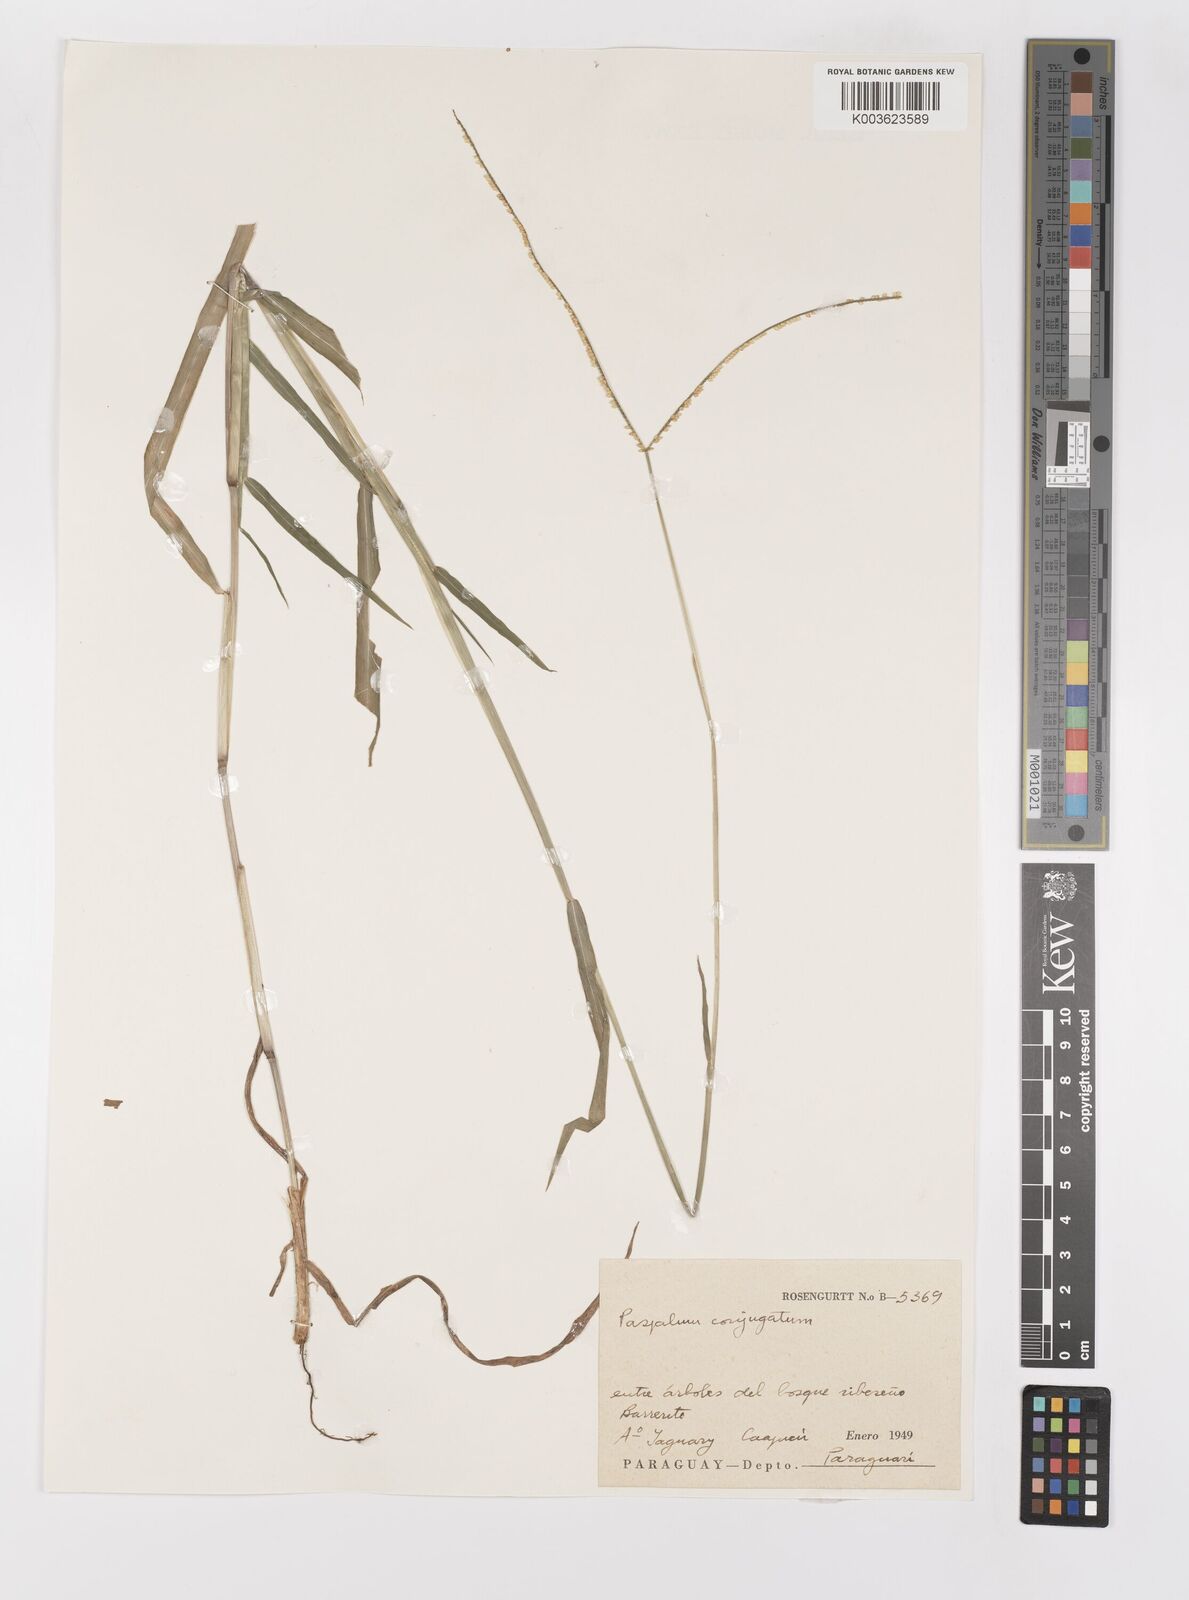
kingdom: Plantae
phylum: Tracheophyta
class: Liliopsida
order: Poales
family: Poaceae
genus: Paspalum
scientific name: Paspalum conjugatum
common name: Hilograss
